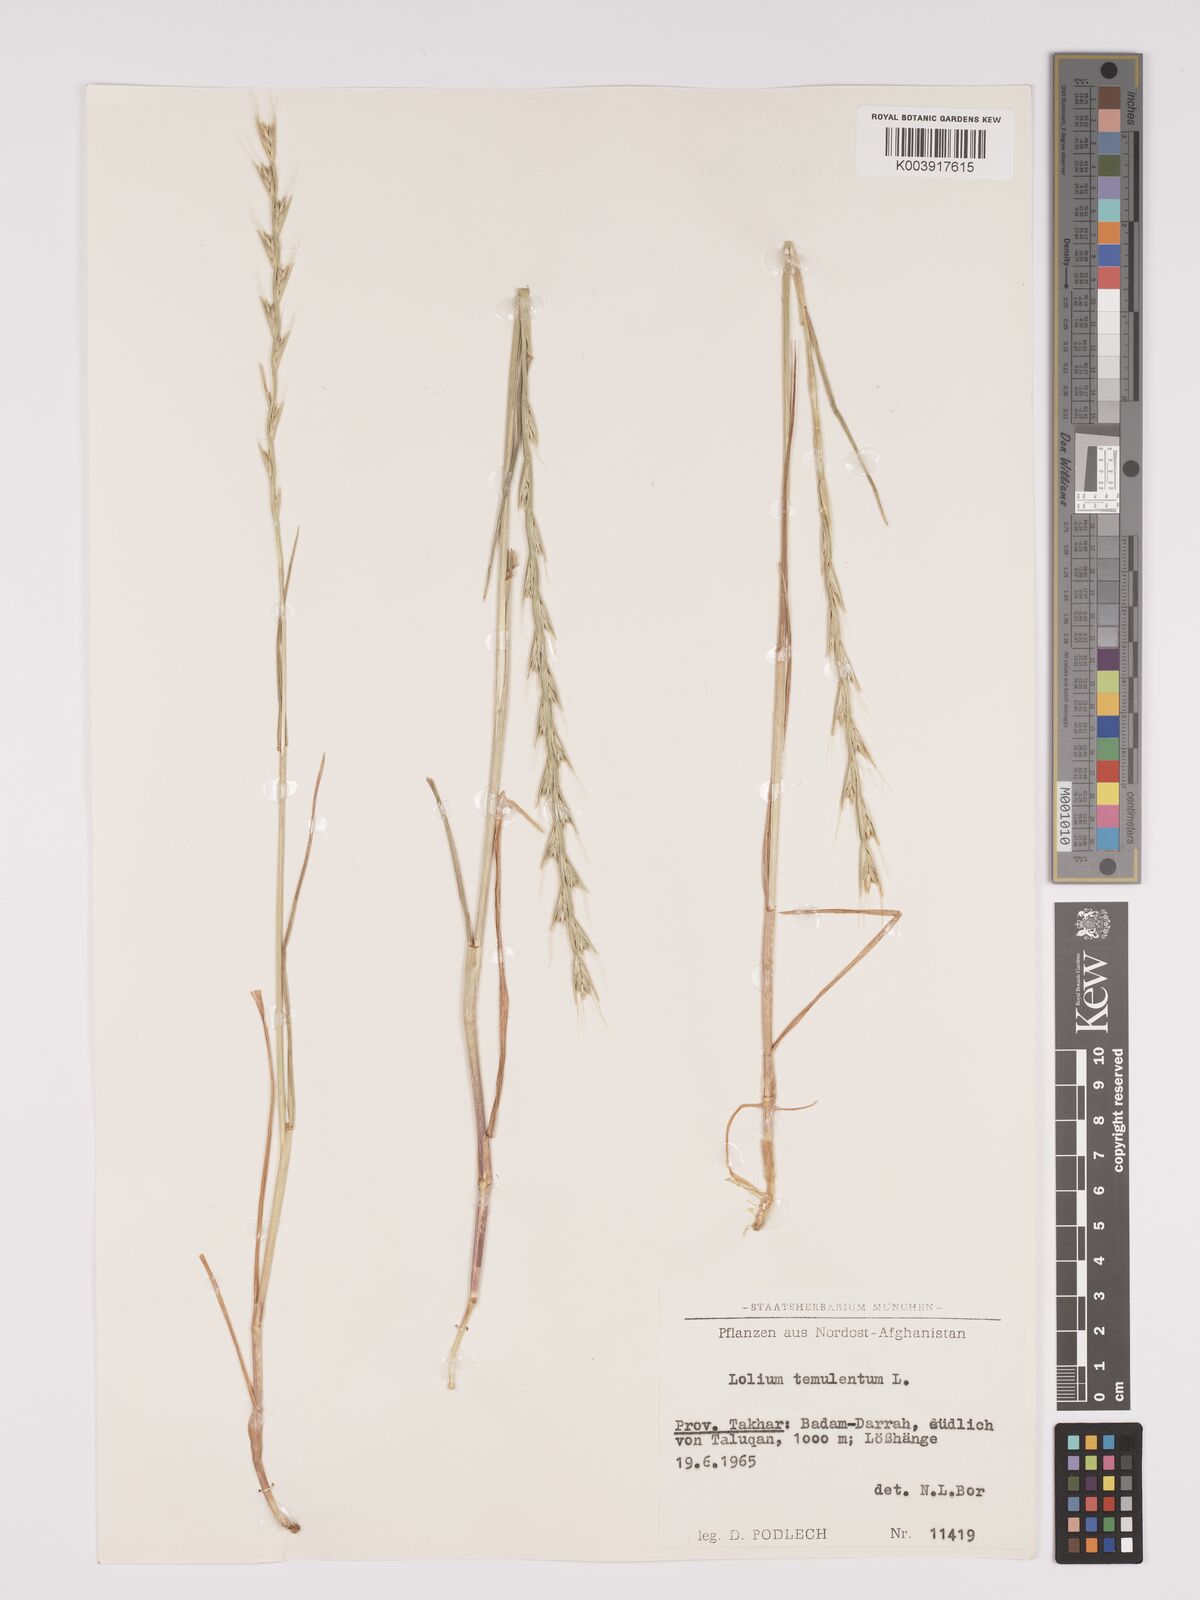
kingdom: Plantae
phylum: Tracheophyta
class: Liliopsida
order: Poales
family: Poaceae
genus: Lolium
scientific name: Lolium temulentum
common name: Darnel
